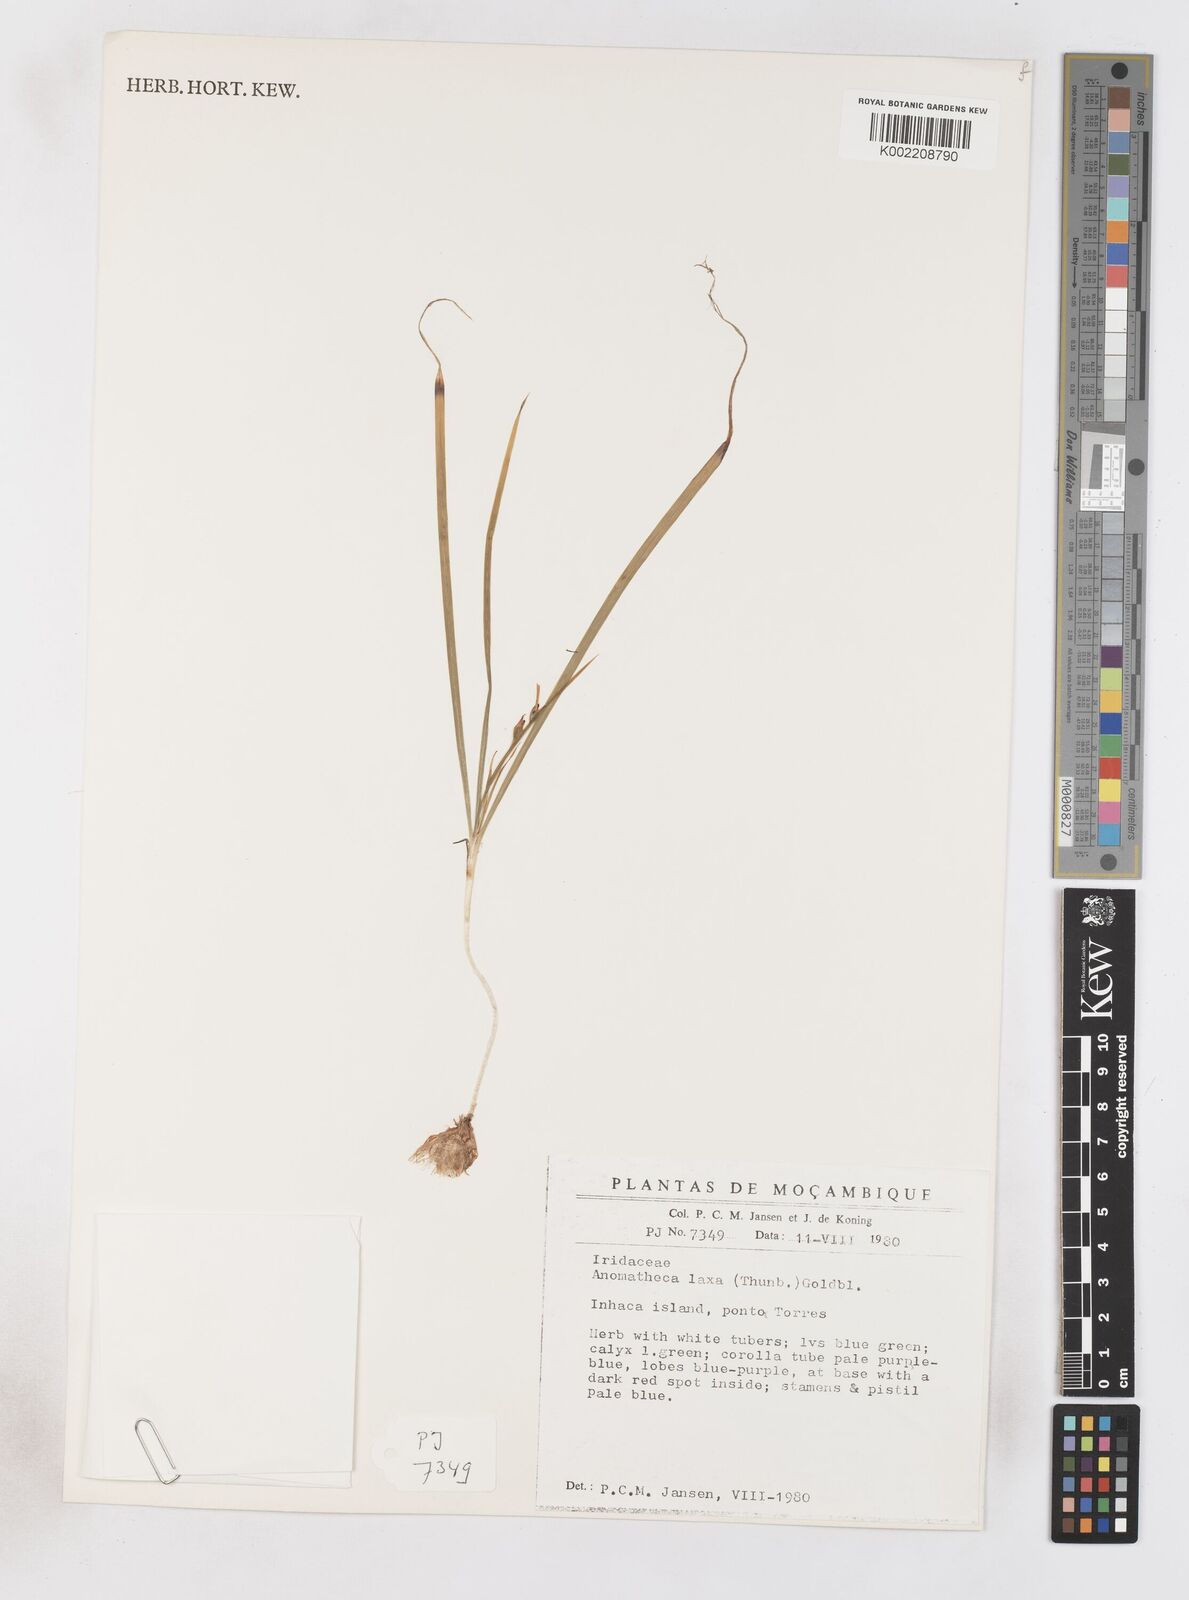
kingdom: Plantae
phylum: Tracheophyta
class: Liliopsida
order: Asparagales
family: Iridaceae
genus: Freesia
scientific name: Freesia laxa
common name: False freesia
